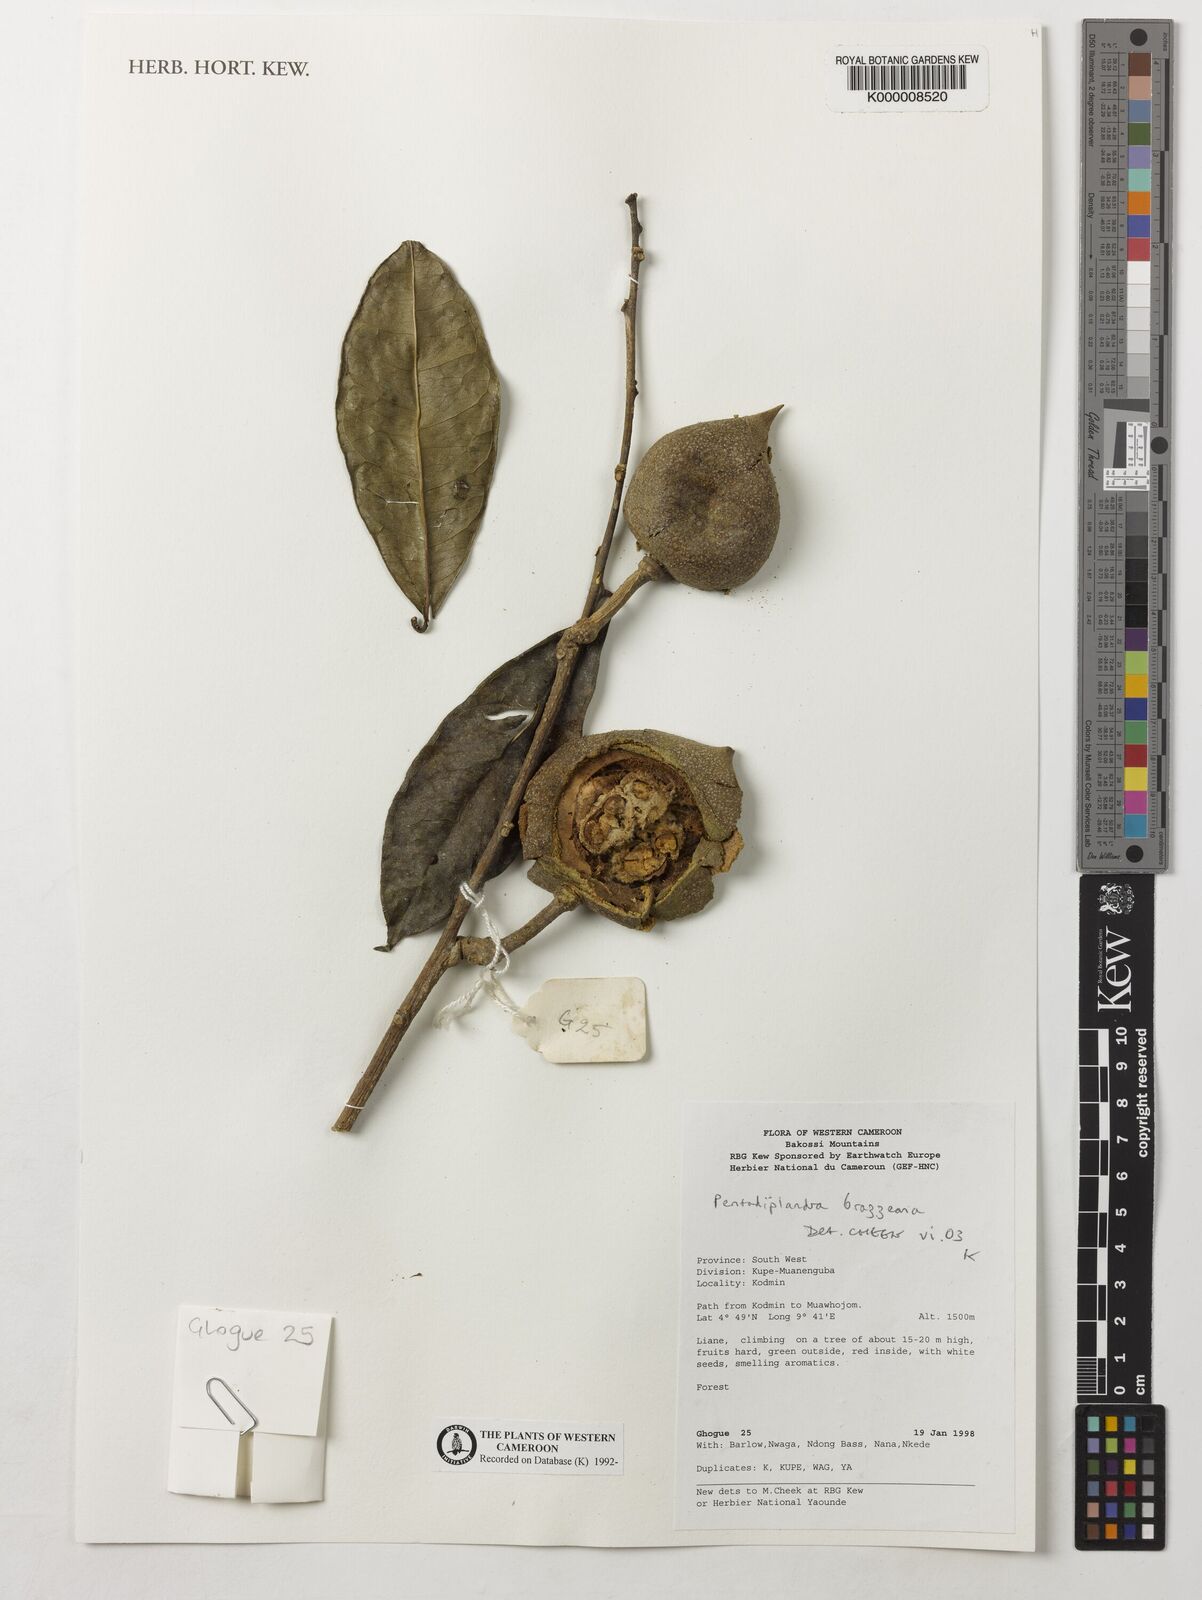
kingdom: Plantae
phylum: Tracheophyta
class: Magnoliopsida
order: Brassicales
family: Pentadiplandraceae
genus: Pentadiplandra
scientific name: Pentadiplandra brazzeana
